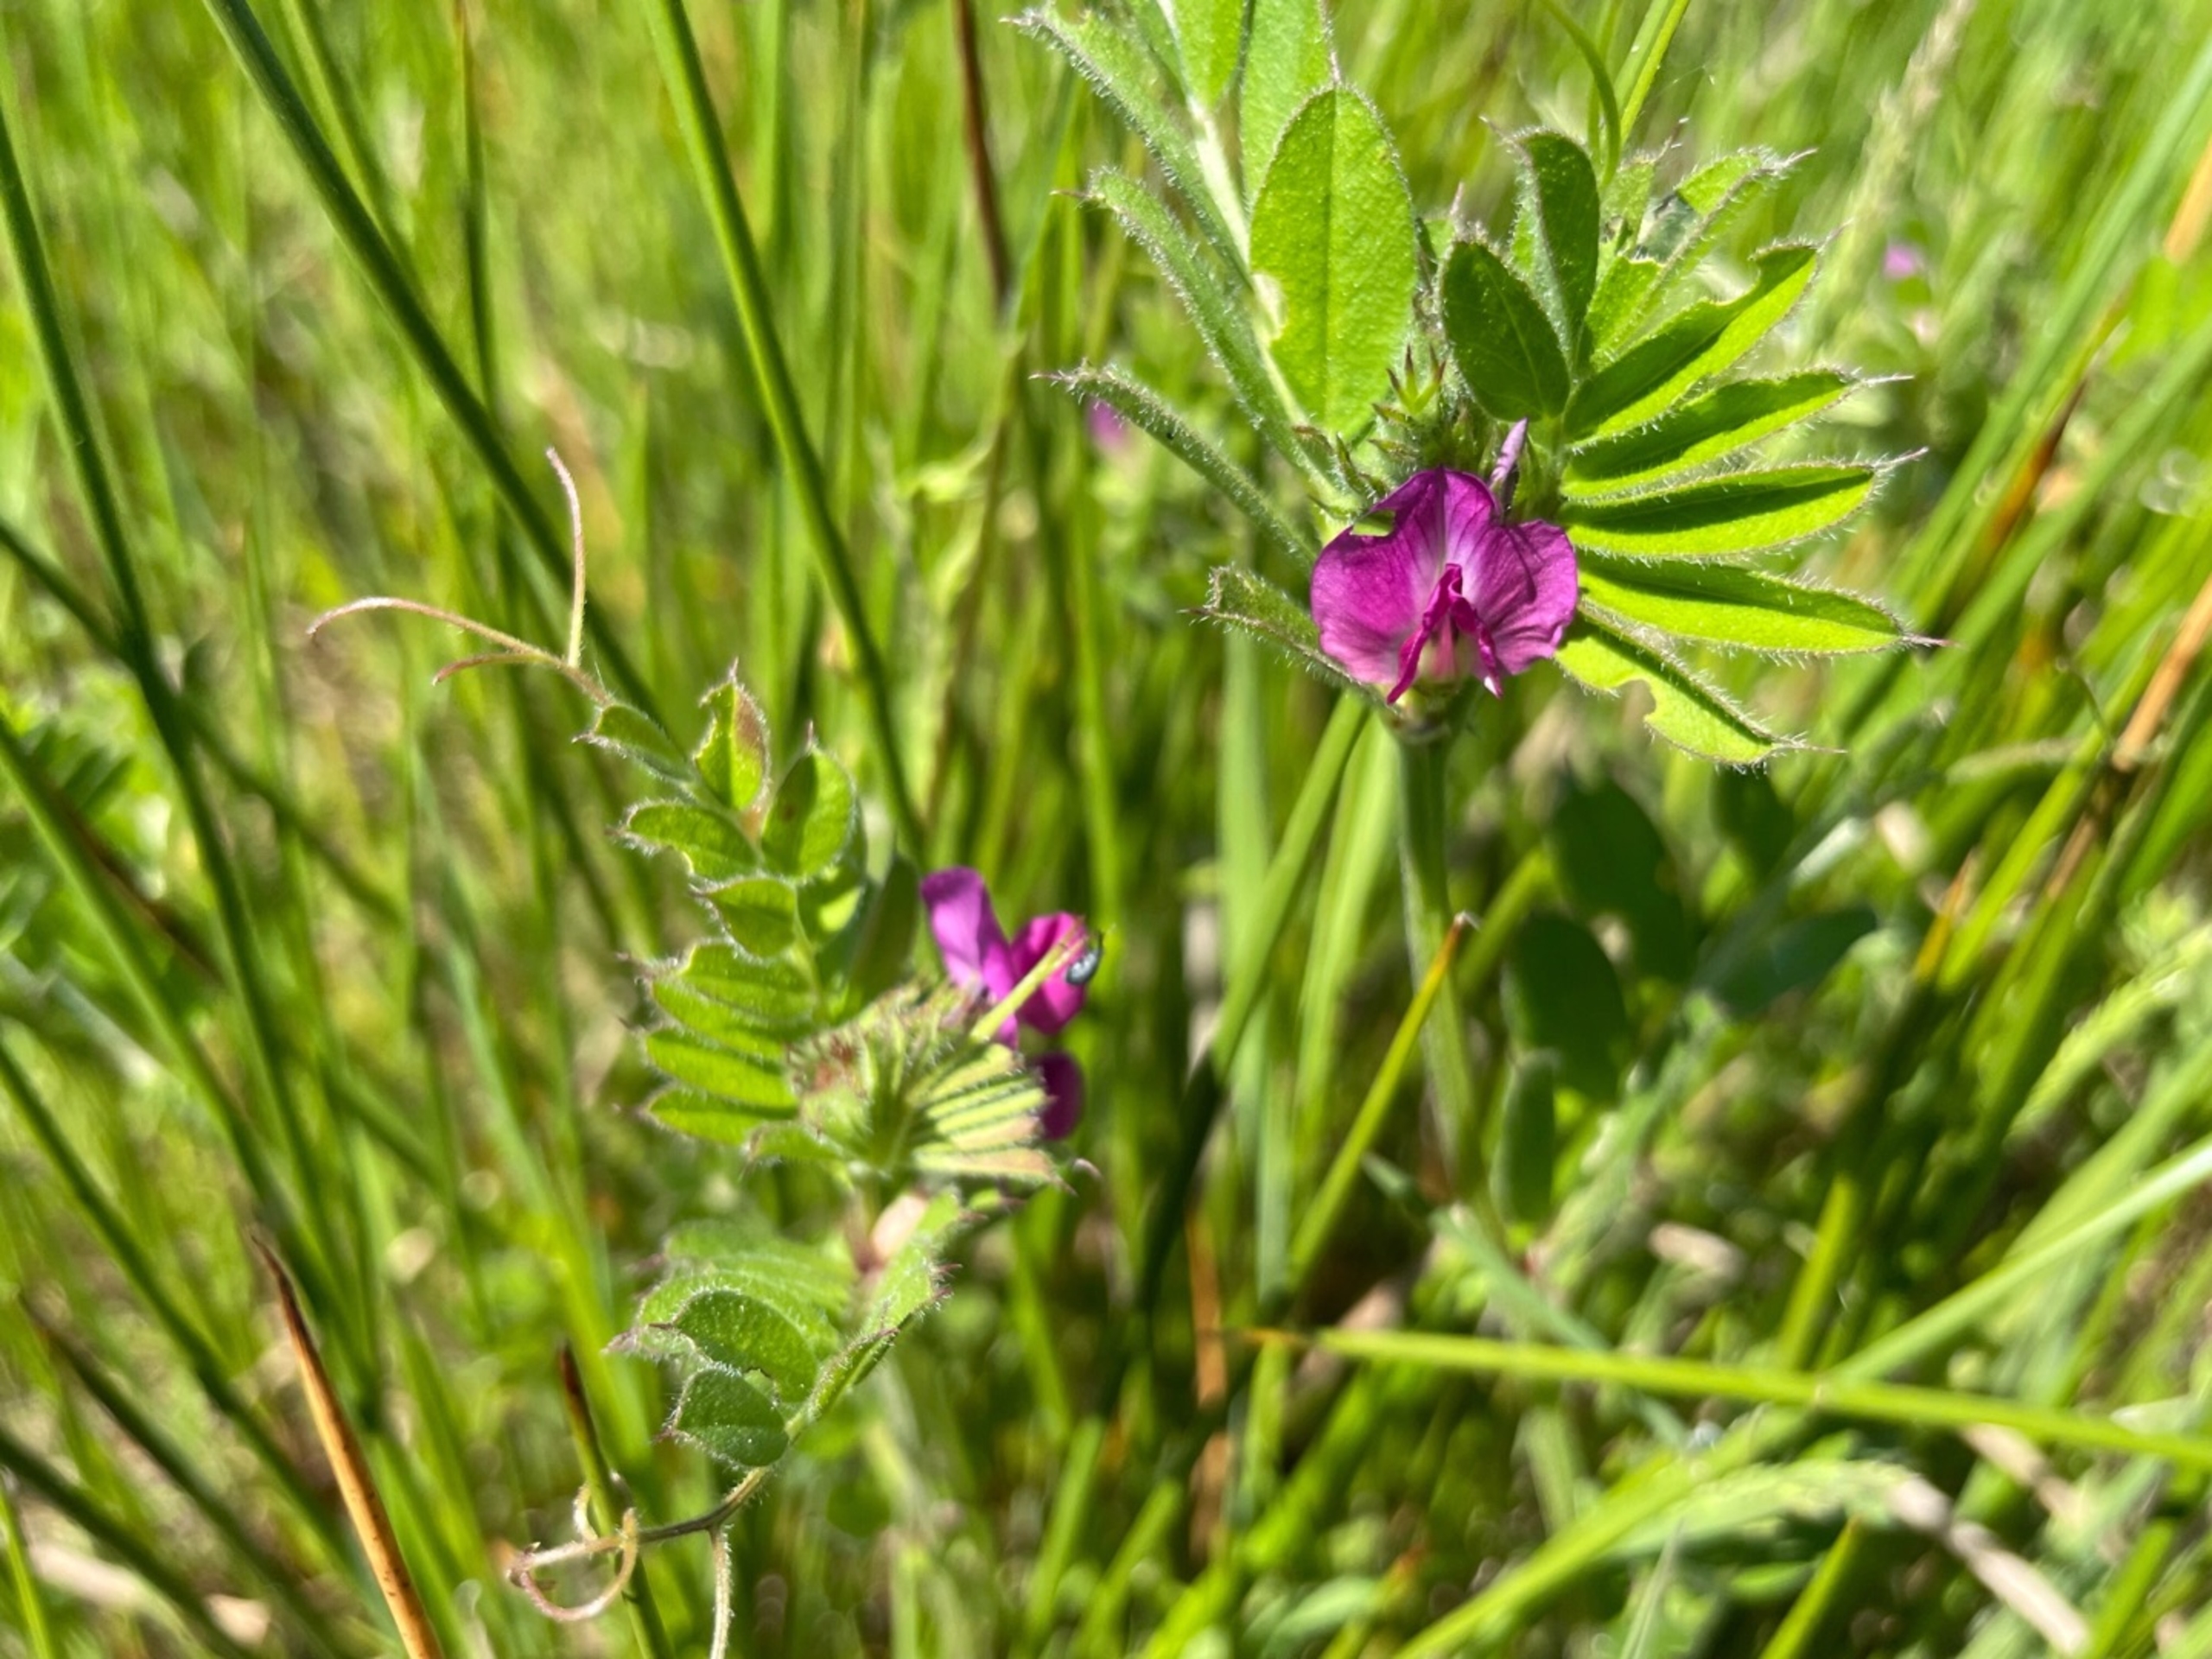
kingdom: Plantae
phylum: Tracheophyta
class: Magnoliopsida
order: Fabales
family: Fabaceae
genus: Vicia
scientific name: Vicia sativa
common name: Foder-vikke
